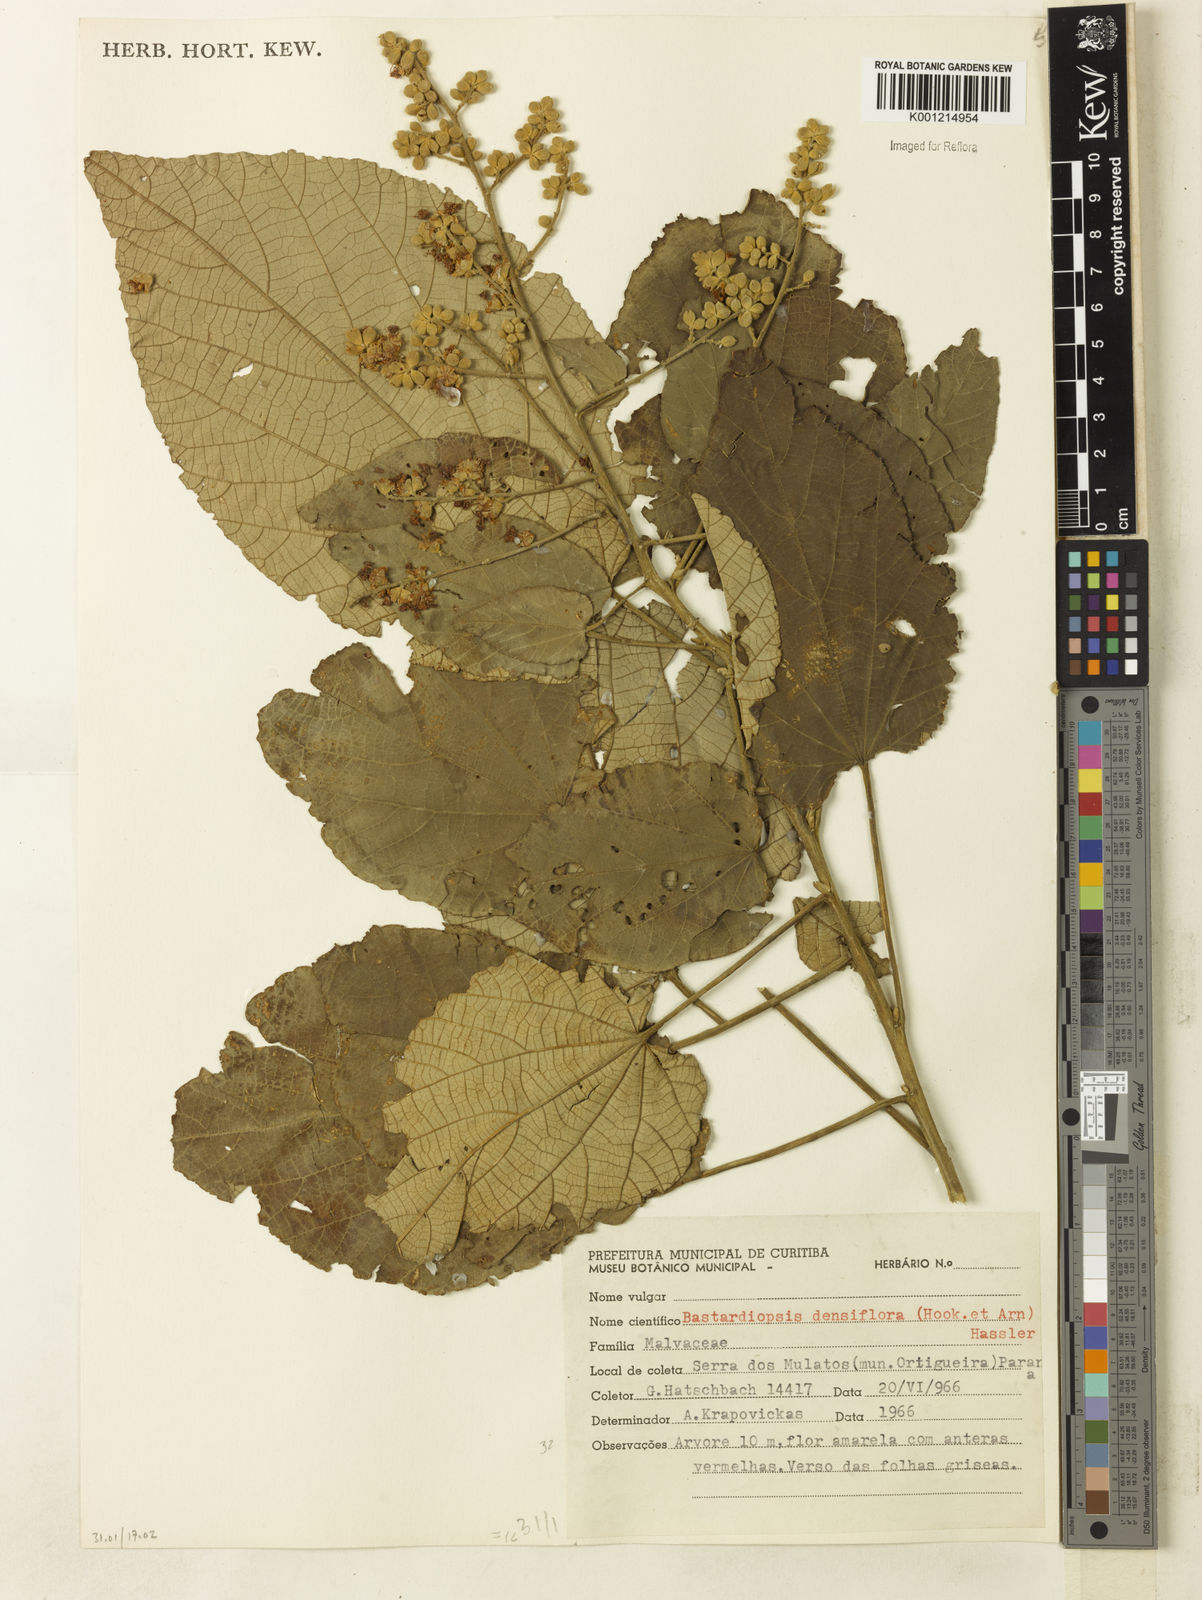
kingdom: Plantae
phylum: Tracheophyta
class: Magnoliopsida
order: Malvales
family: Malvaceae
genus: Bastardiopsis
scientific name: Bastardiopsis densiflora
